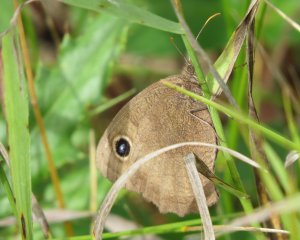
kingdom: Animalia
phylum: Arthropoda
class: Insecta
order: Lepidoptera
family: Nymphalidae
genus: Cercyonis
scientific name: Cercyonis pegala
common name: Common Wood-Nymph
